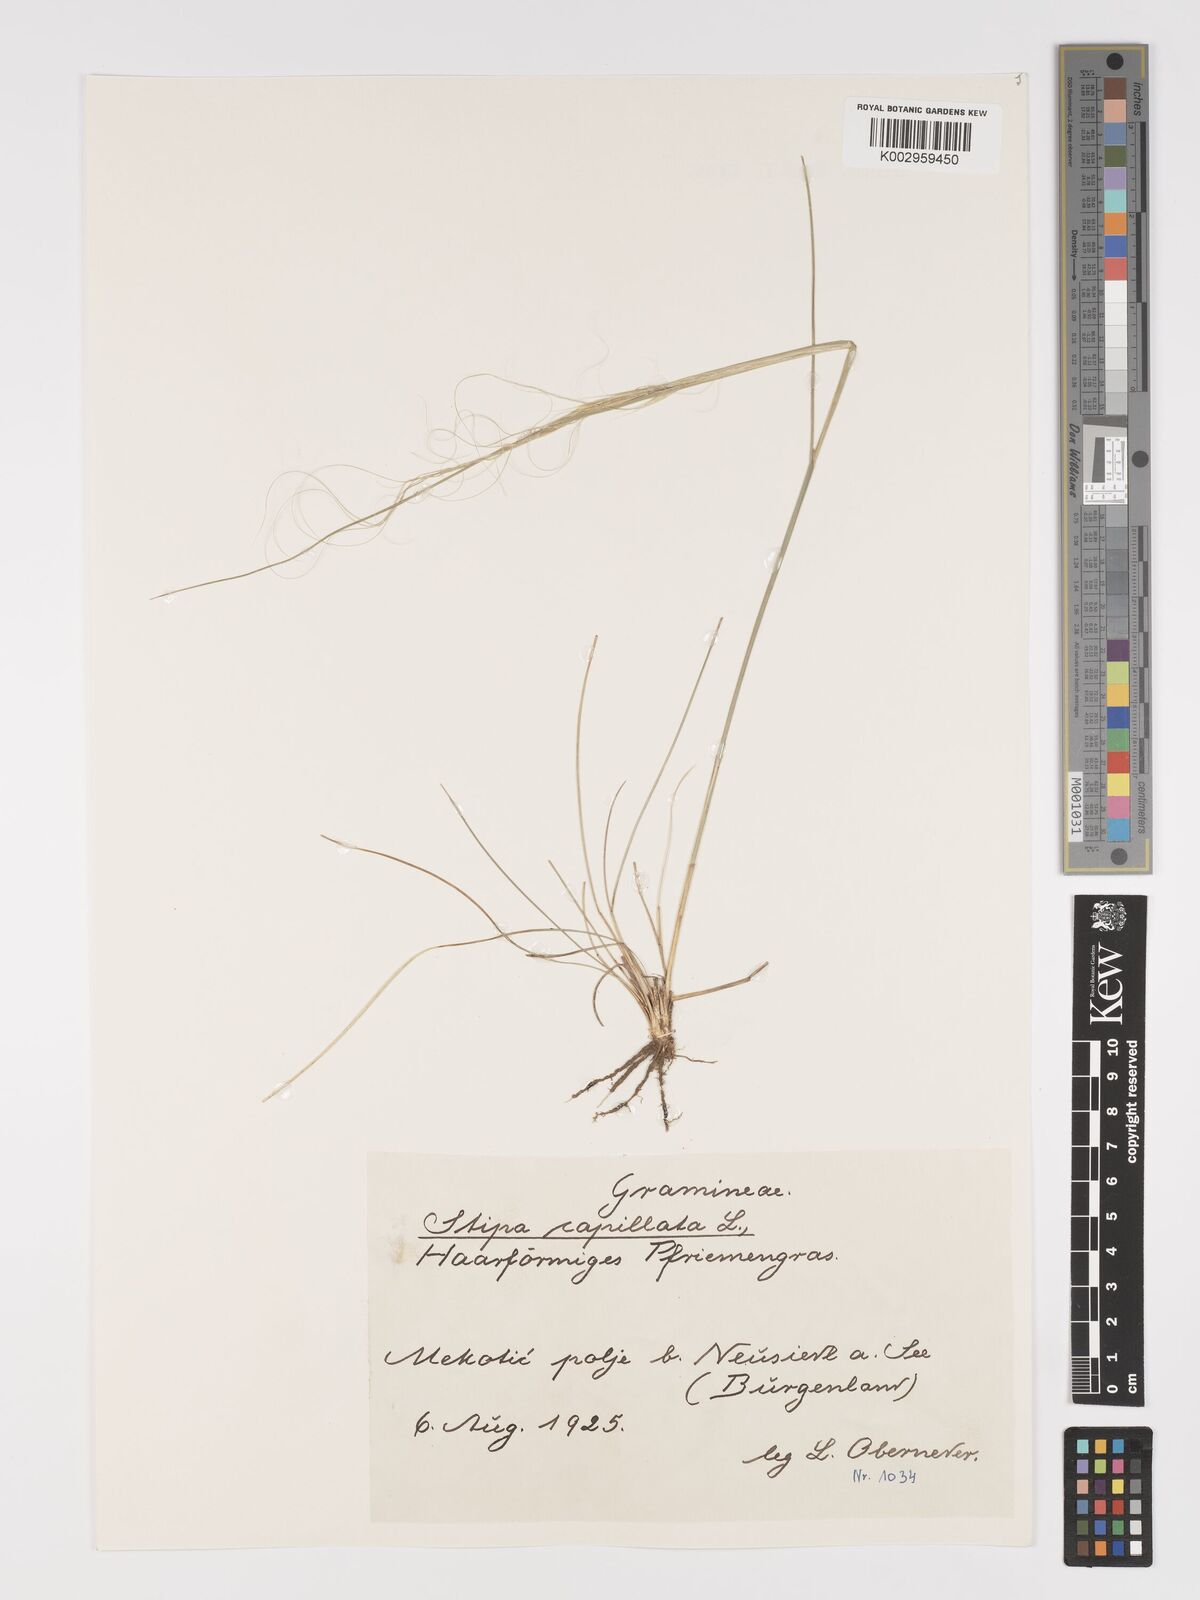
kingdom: Plantae
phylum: Tracheophyta
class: Liliopsida
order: Poales
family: Poaceae
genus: Stipa
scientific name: Stipa capillata
